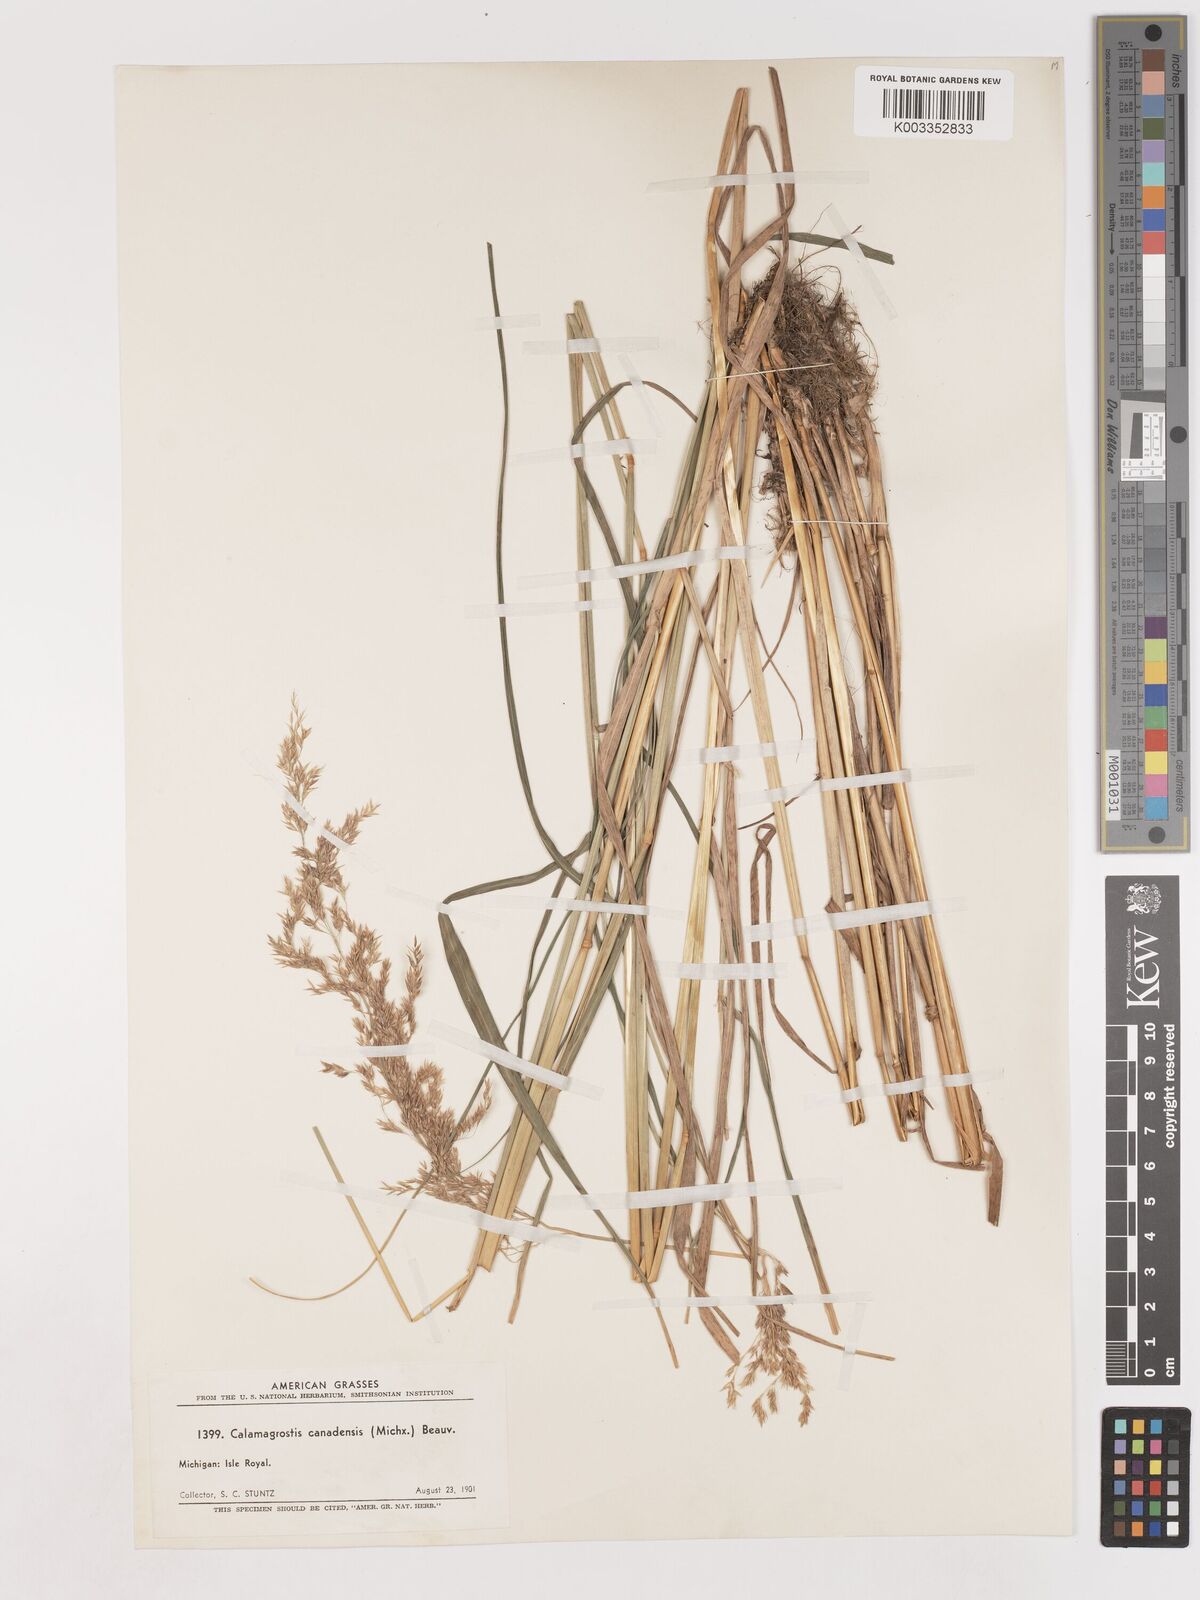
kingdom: Plantae
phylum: Tracheophyta
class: Liliopsida
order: Poales
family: Poaceae
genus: Calamagrostis
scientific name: Calamagrostis canadensis
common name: Canada bluejoint
